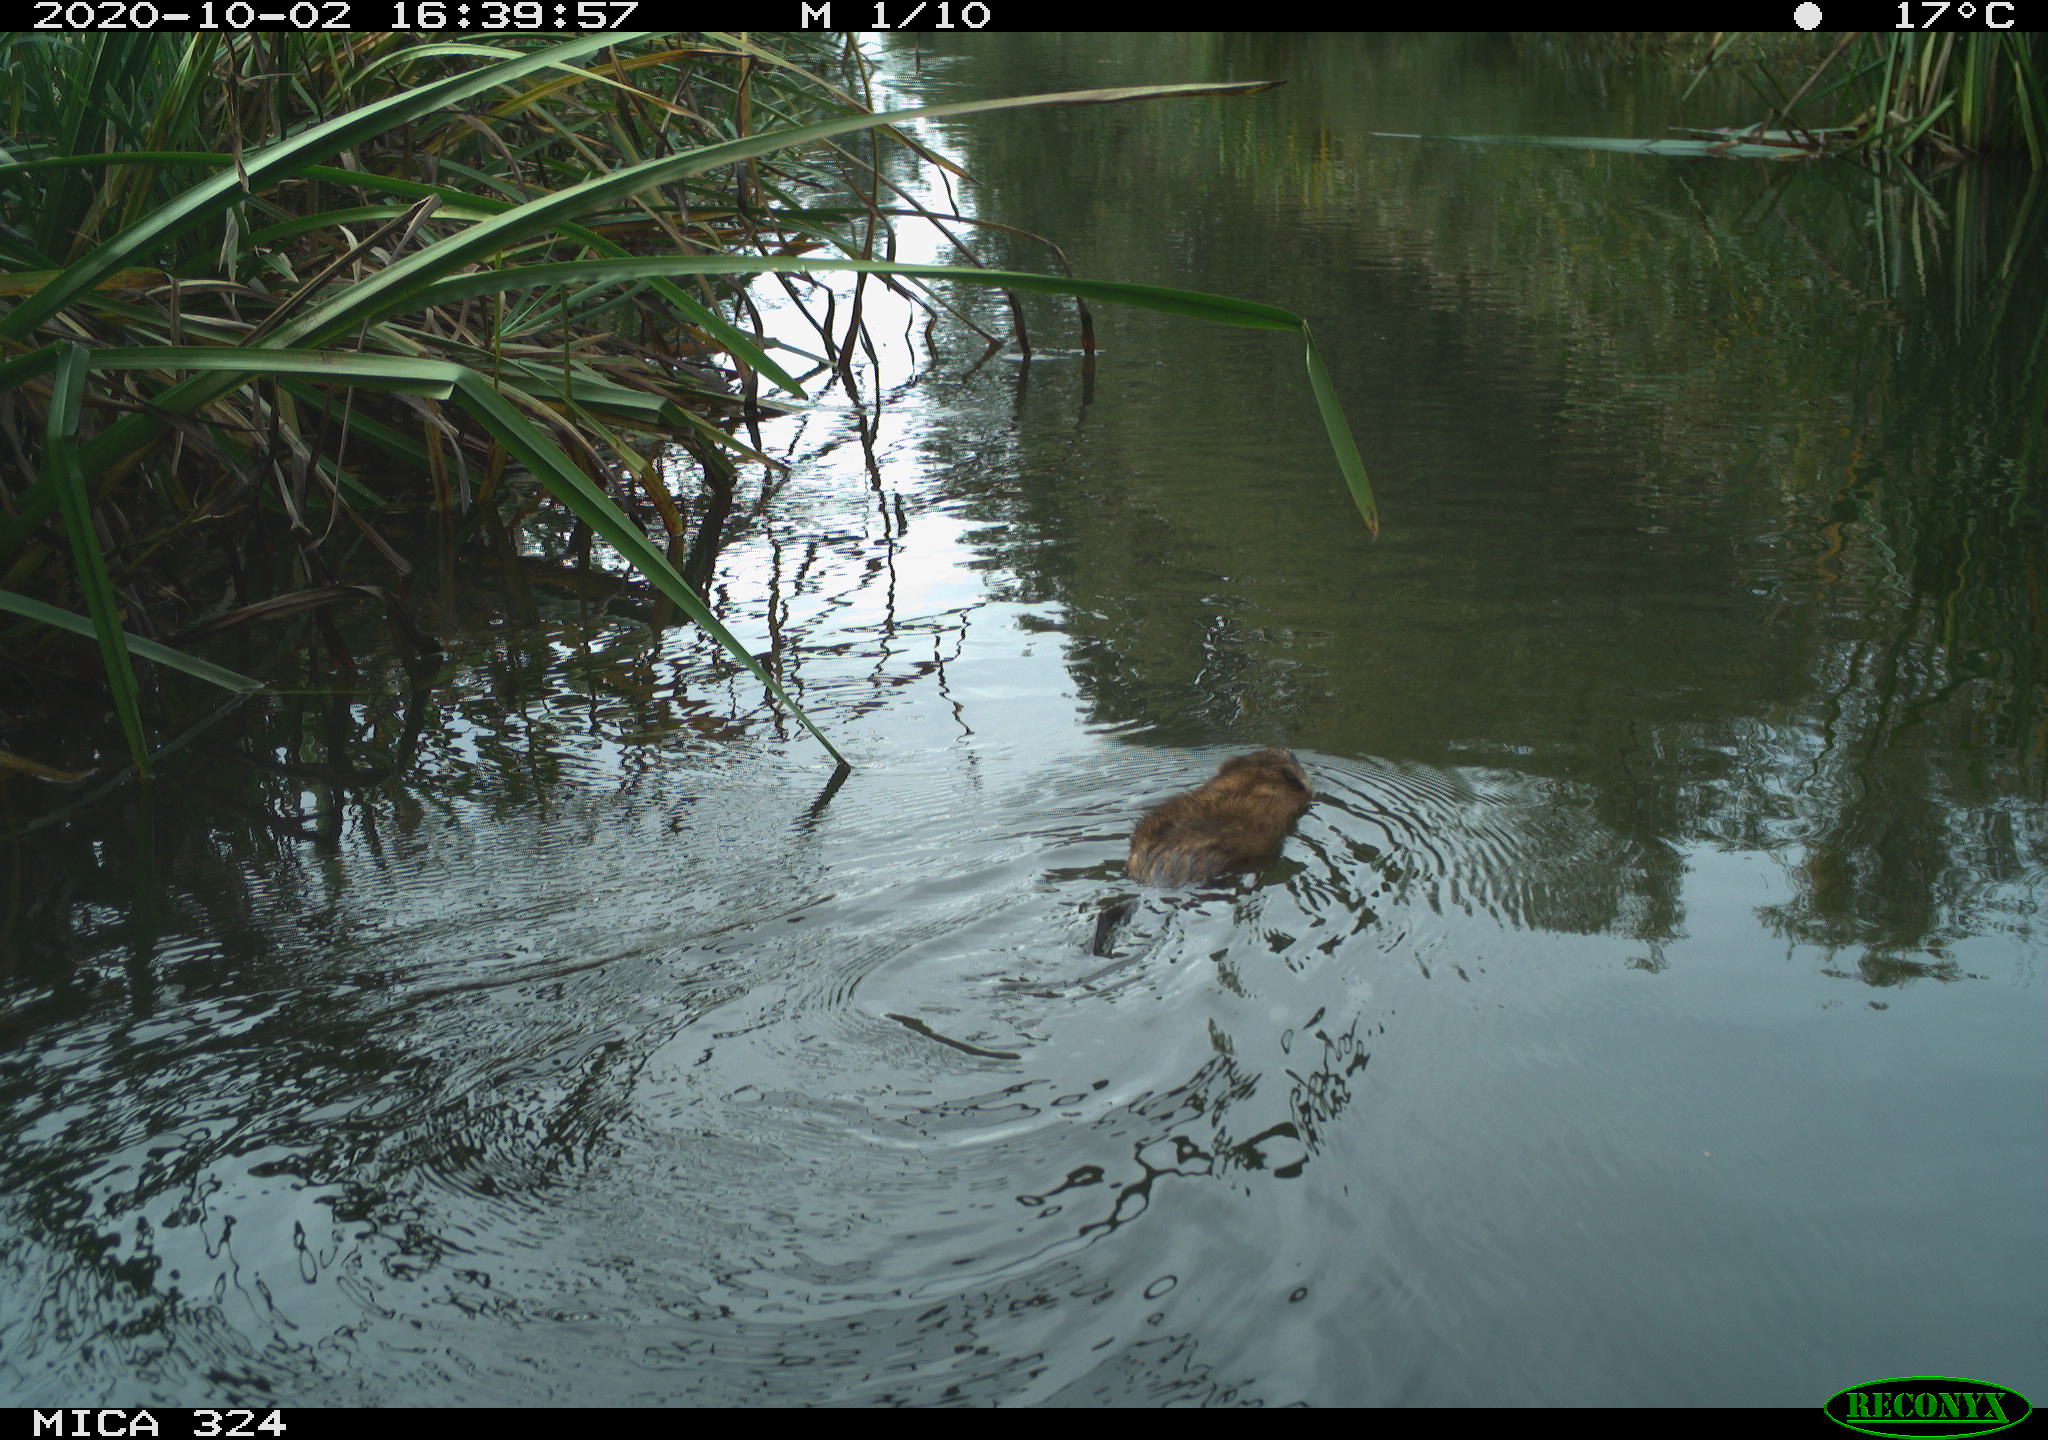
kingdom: Animalia
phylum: Chordata
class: Mammalia
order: Rodentia
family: Cricetidae
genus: Ondatra
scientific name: Ondatra zibethicus
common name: Muskrat
